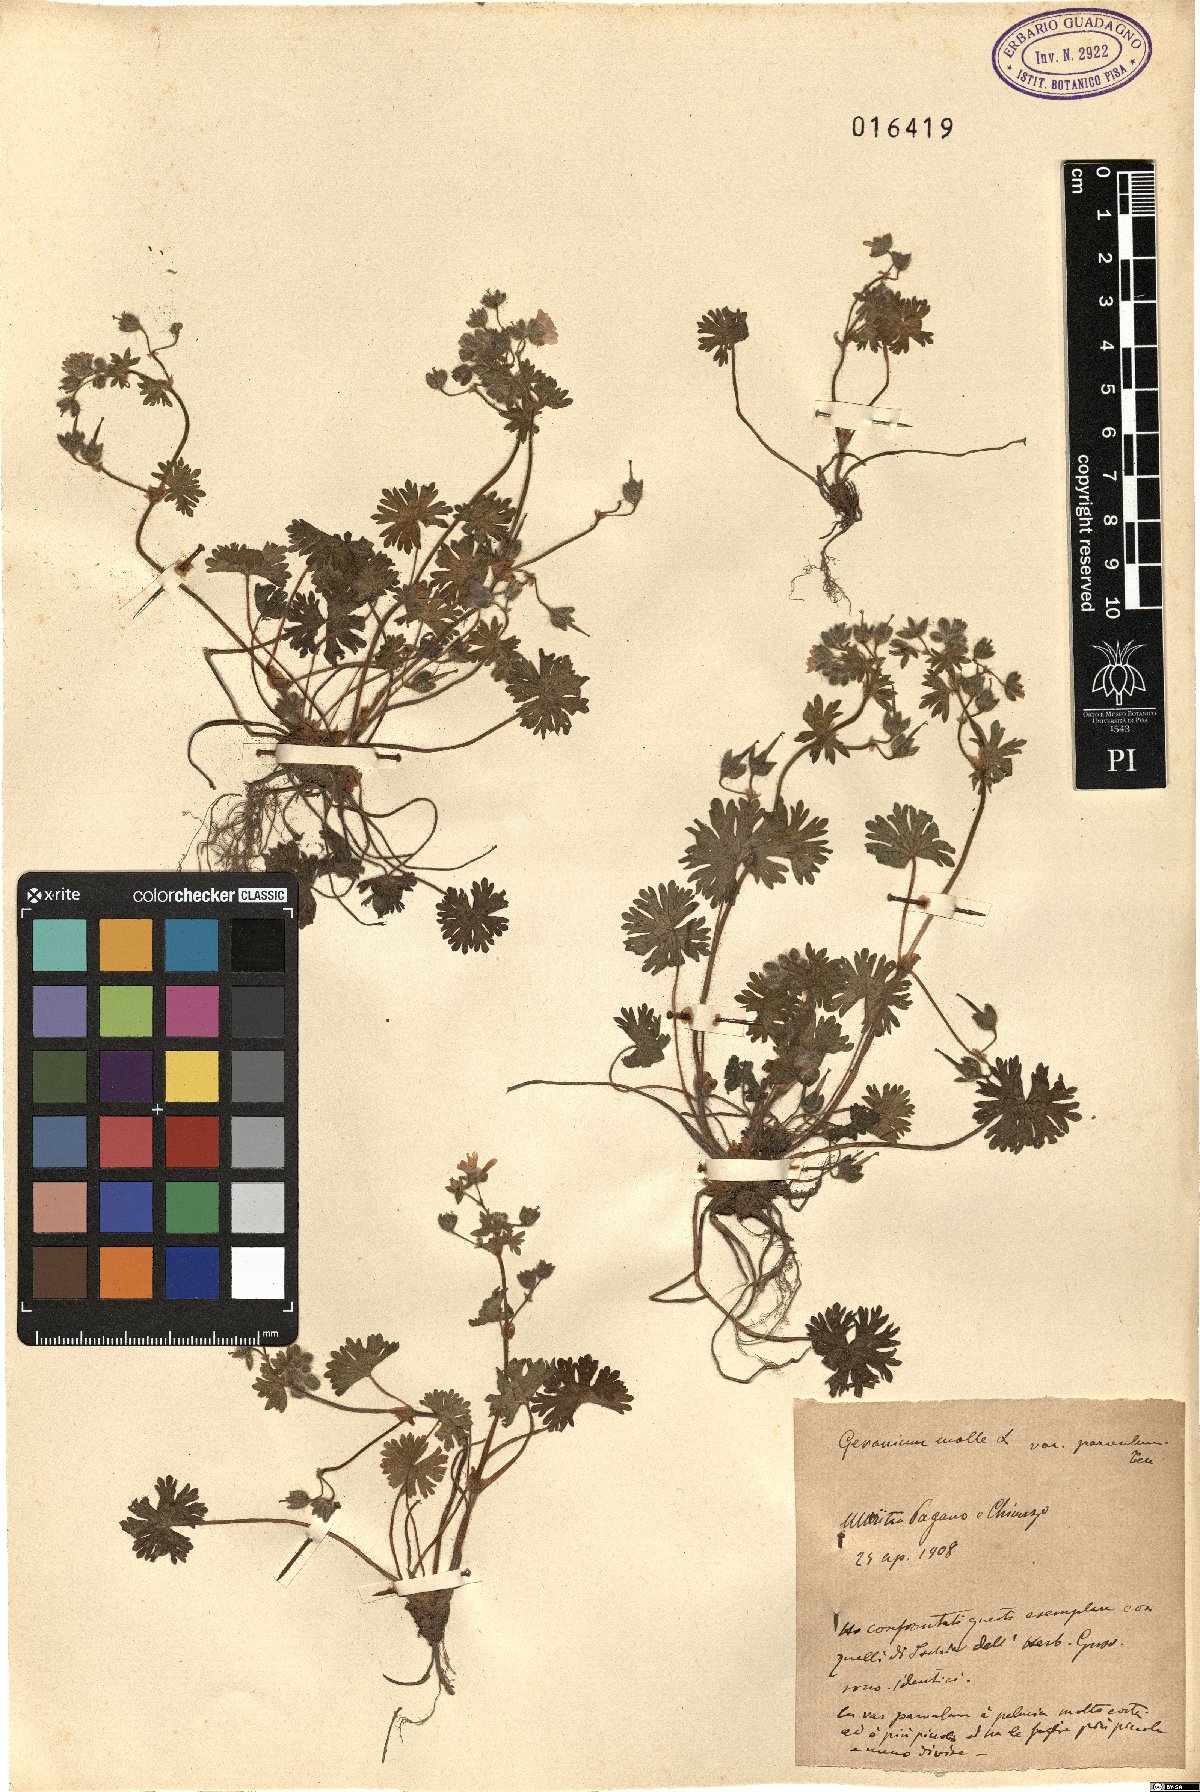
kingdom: Plantae
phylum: Tracheophyta
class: Magnoliopsida
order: Geraniales
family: Geraniaceae
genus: Geranium
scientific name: Geranium molle
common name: Dove's-foot crane's-bill
